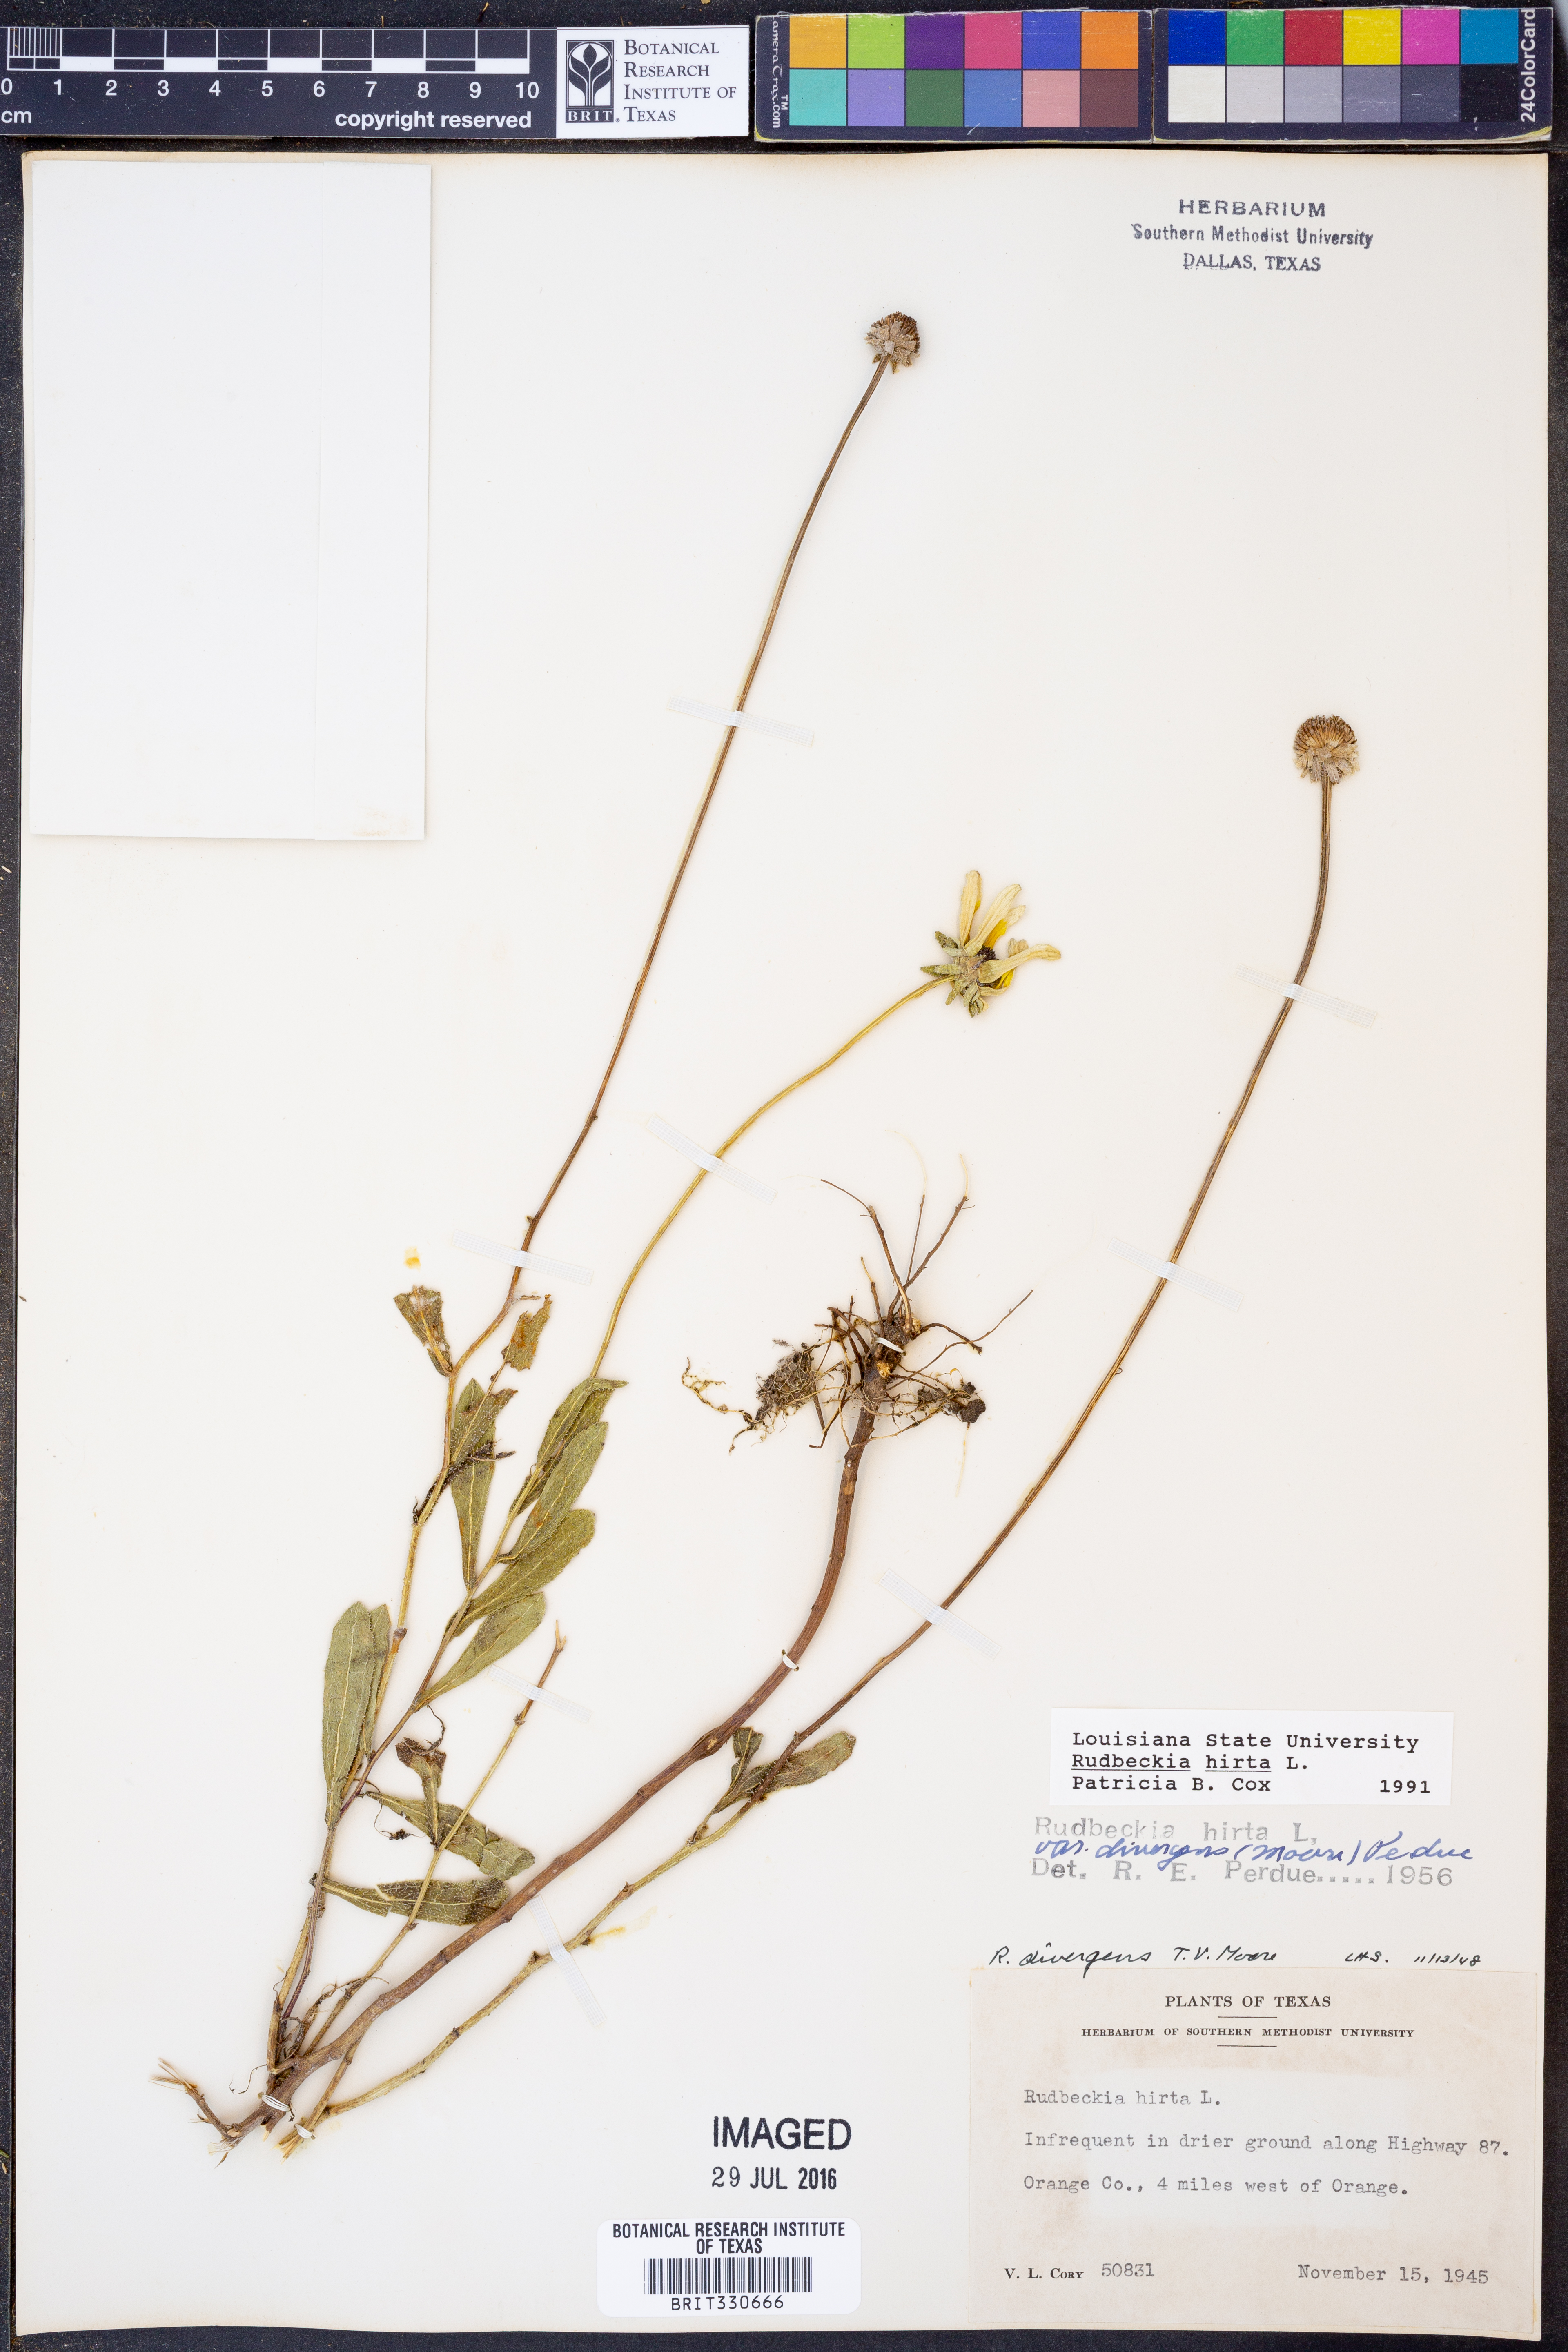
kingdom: Plantae
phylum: Tracheophyta
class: Magnoliopsida
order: Asterales
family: Asteraceae
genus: Rudbeckia
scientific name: Rudbeckia hirta
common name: Black-eyed-susan
